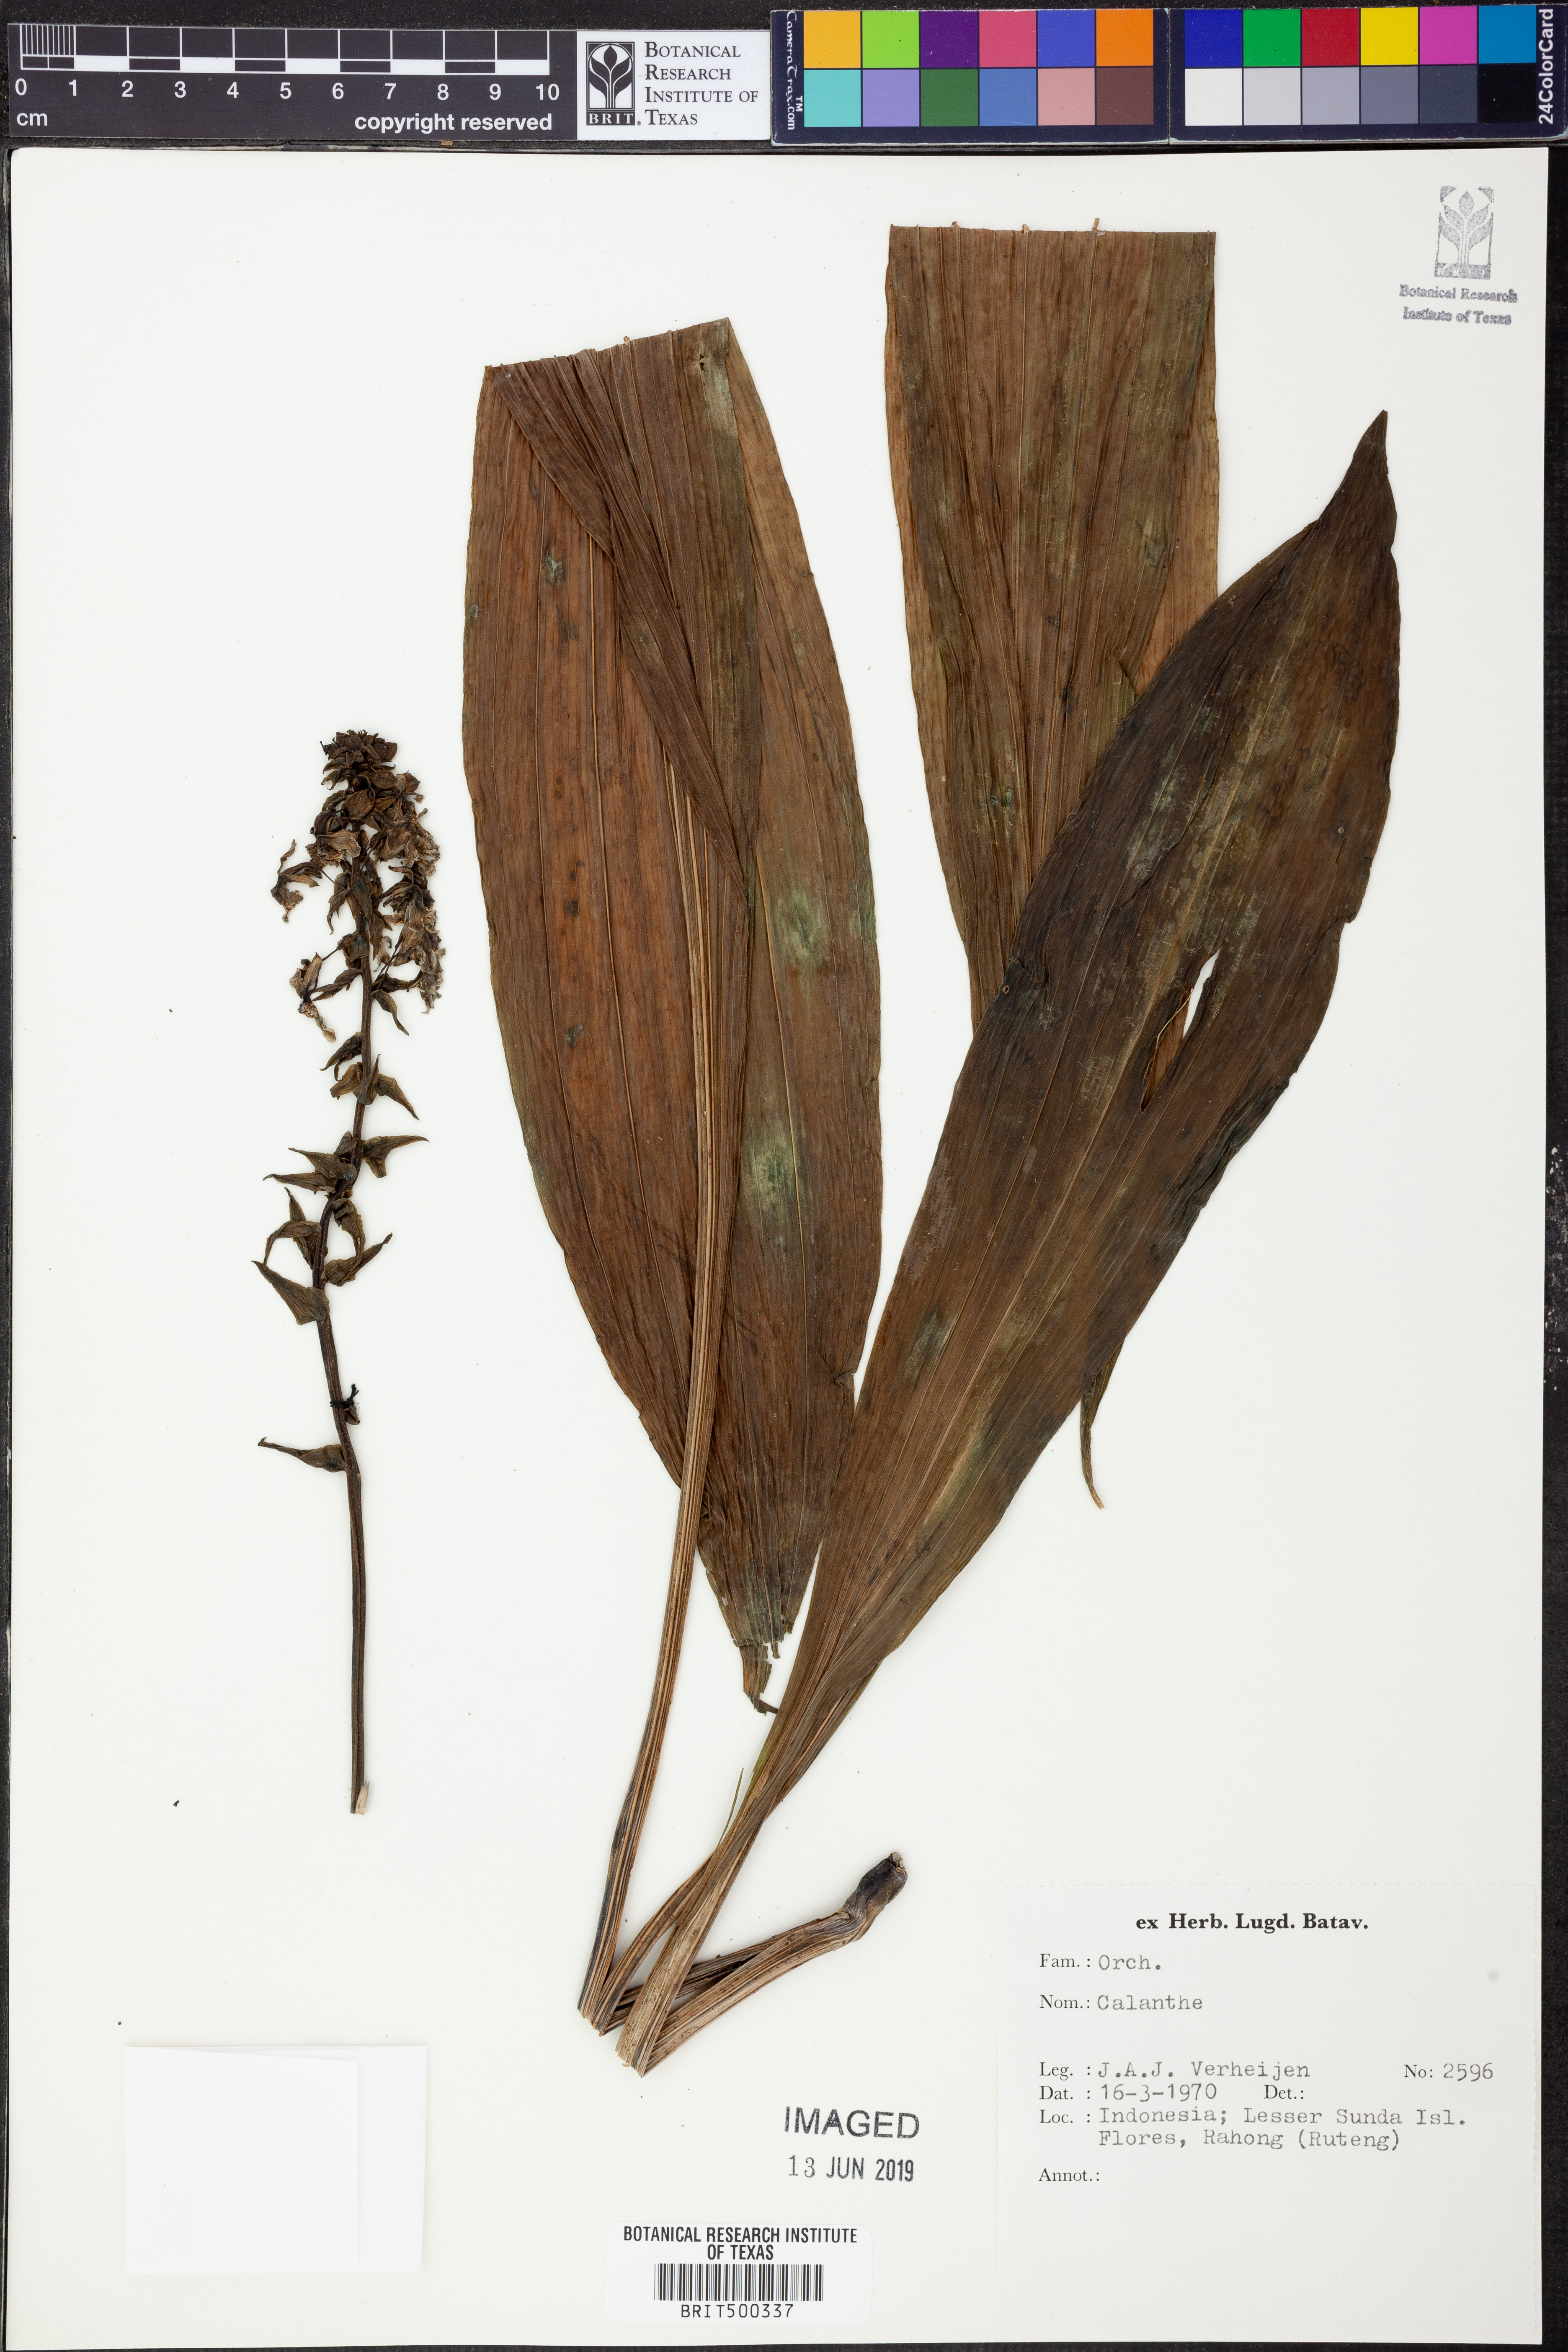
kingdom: Plantae
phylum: Tracheophyta
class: Liliopsida
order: Asparagales
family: Orchidaceae
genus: Calanthe
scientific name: Calanthe
